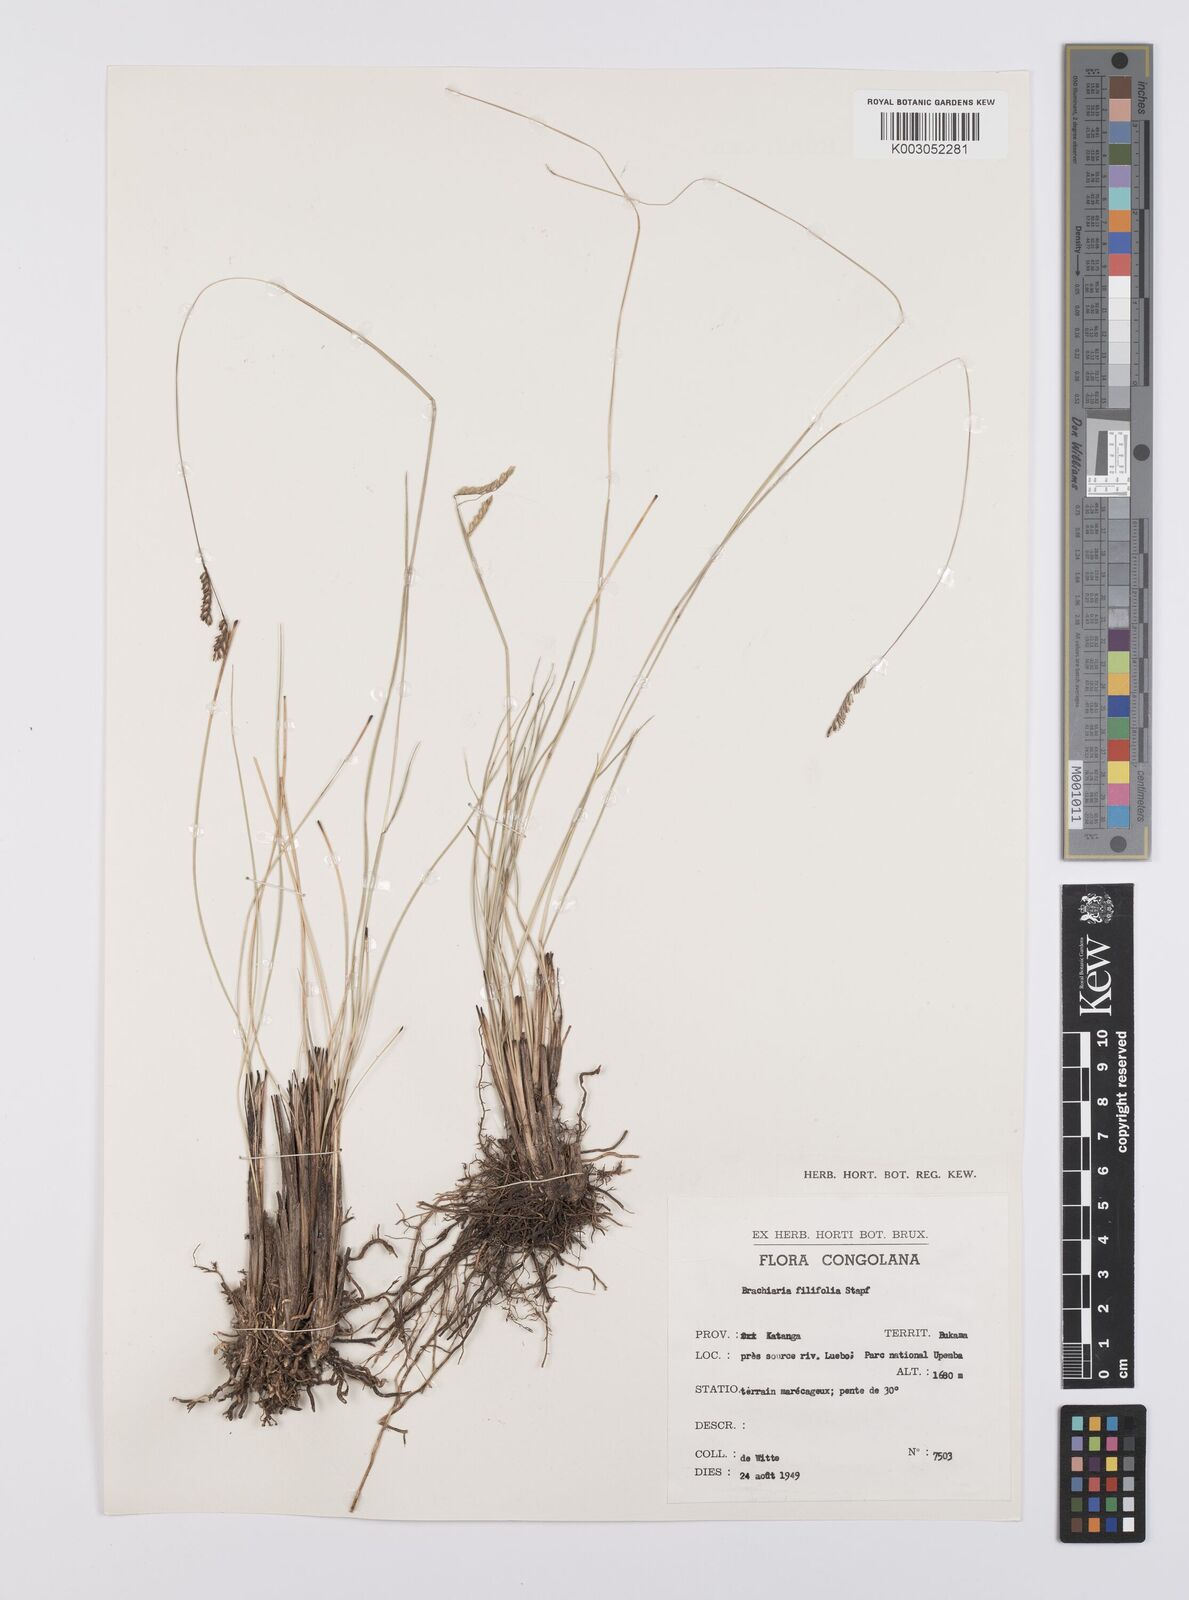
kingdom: Plantae
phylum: Tracheophyta
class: Liliopsida
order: Poales
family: Poaceae
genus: Urochloa
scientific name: Urochloa subulifolia
